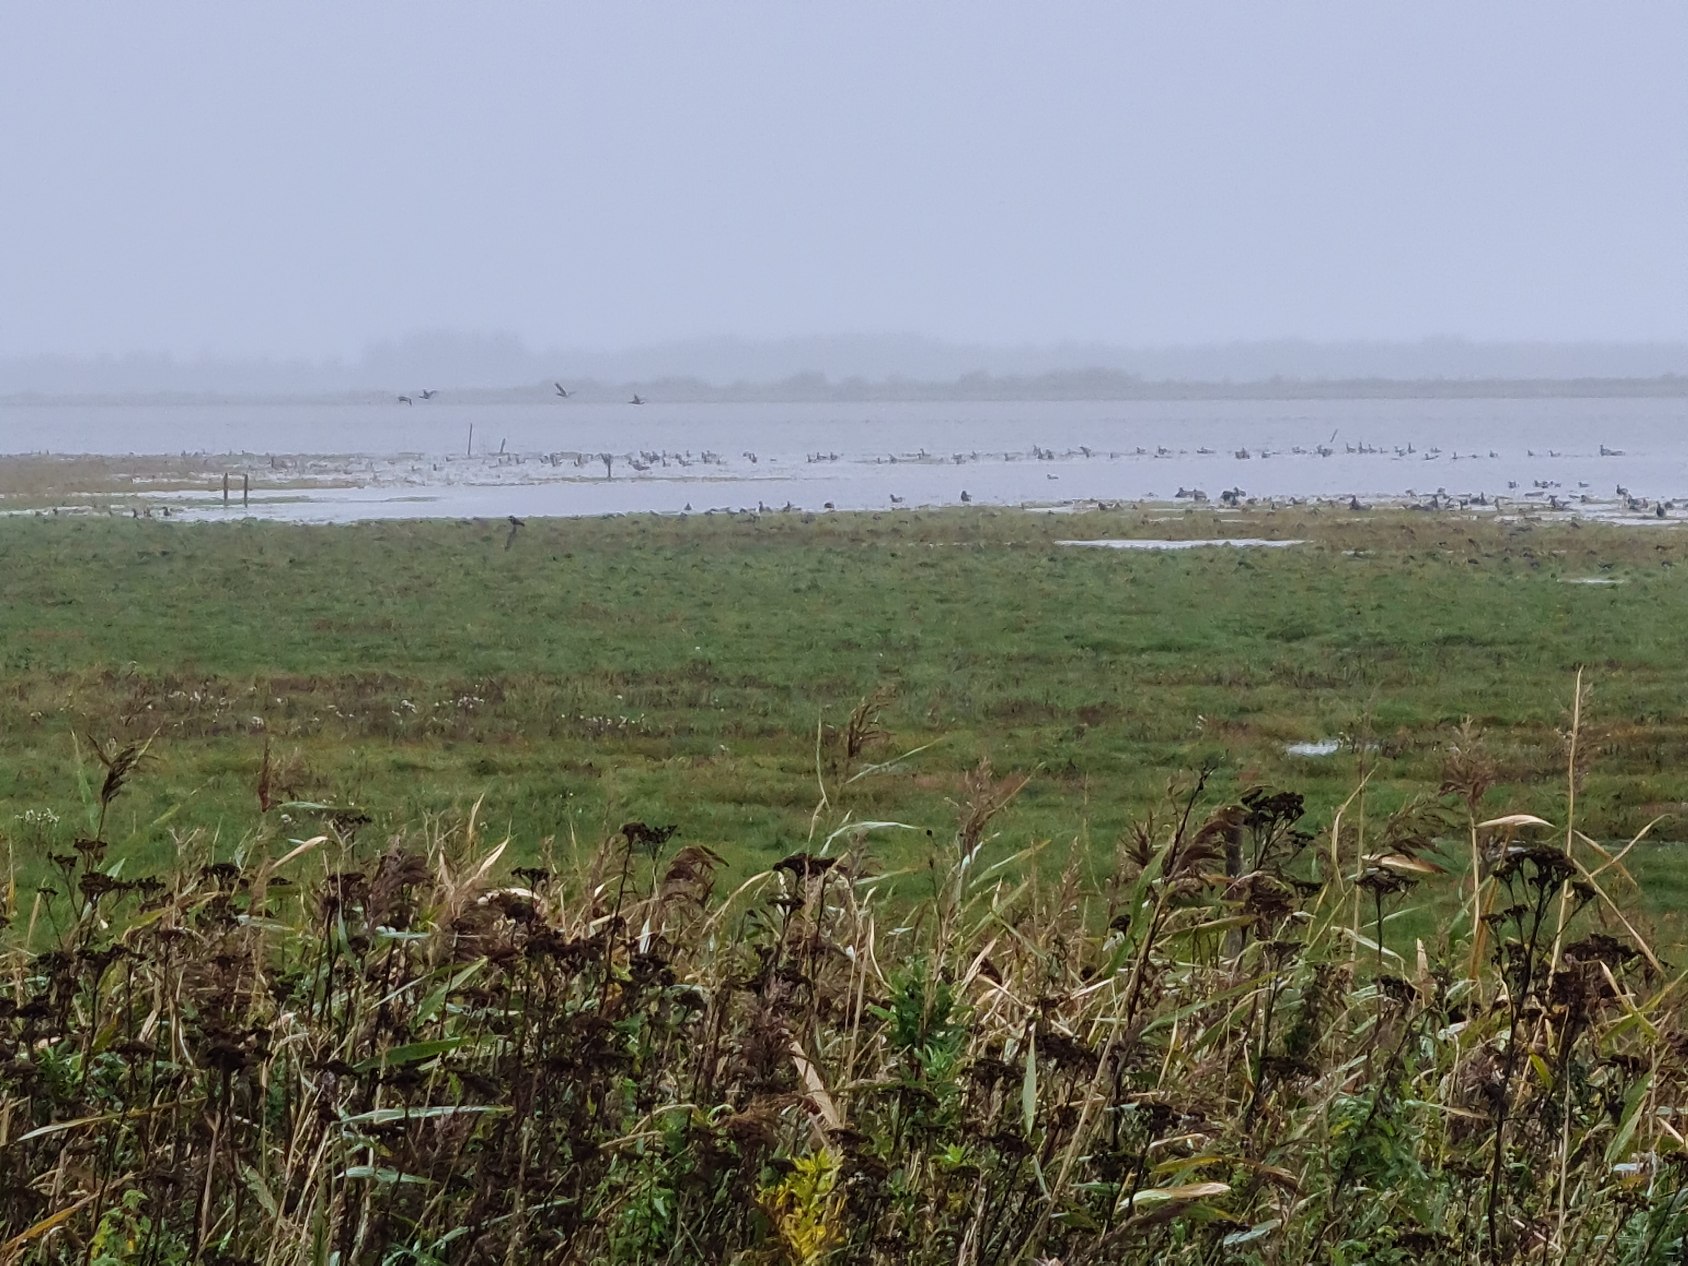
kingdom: Animalia
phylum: Chordata
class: Aves
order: Charadriiformes
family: Charadriidae
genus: Vanellus
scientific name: Vanellus vanellus
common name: Vibe
